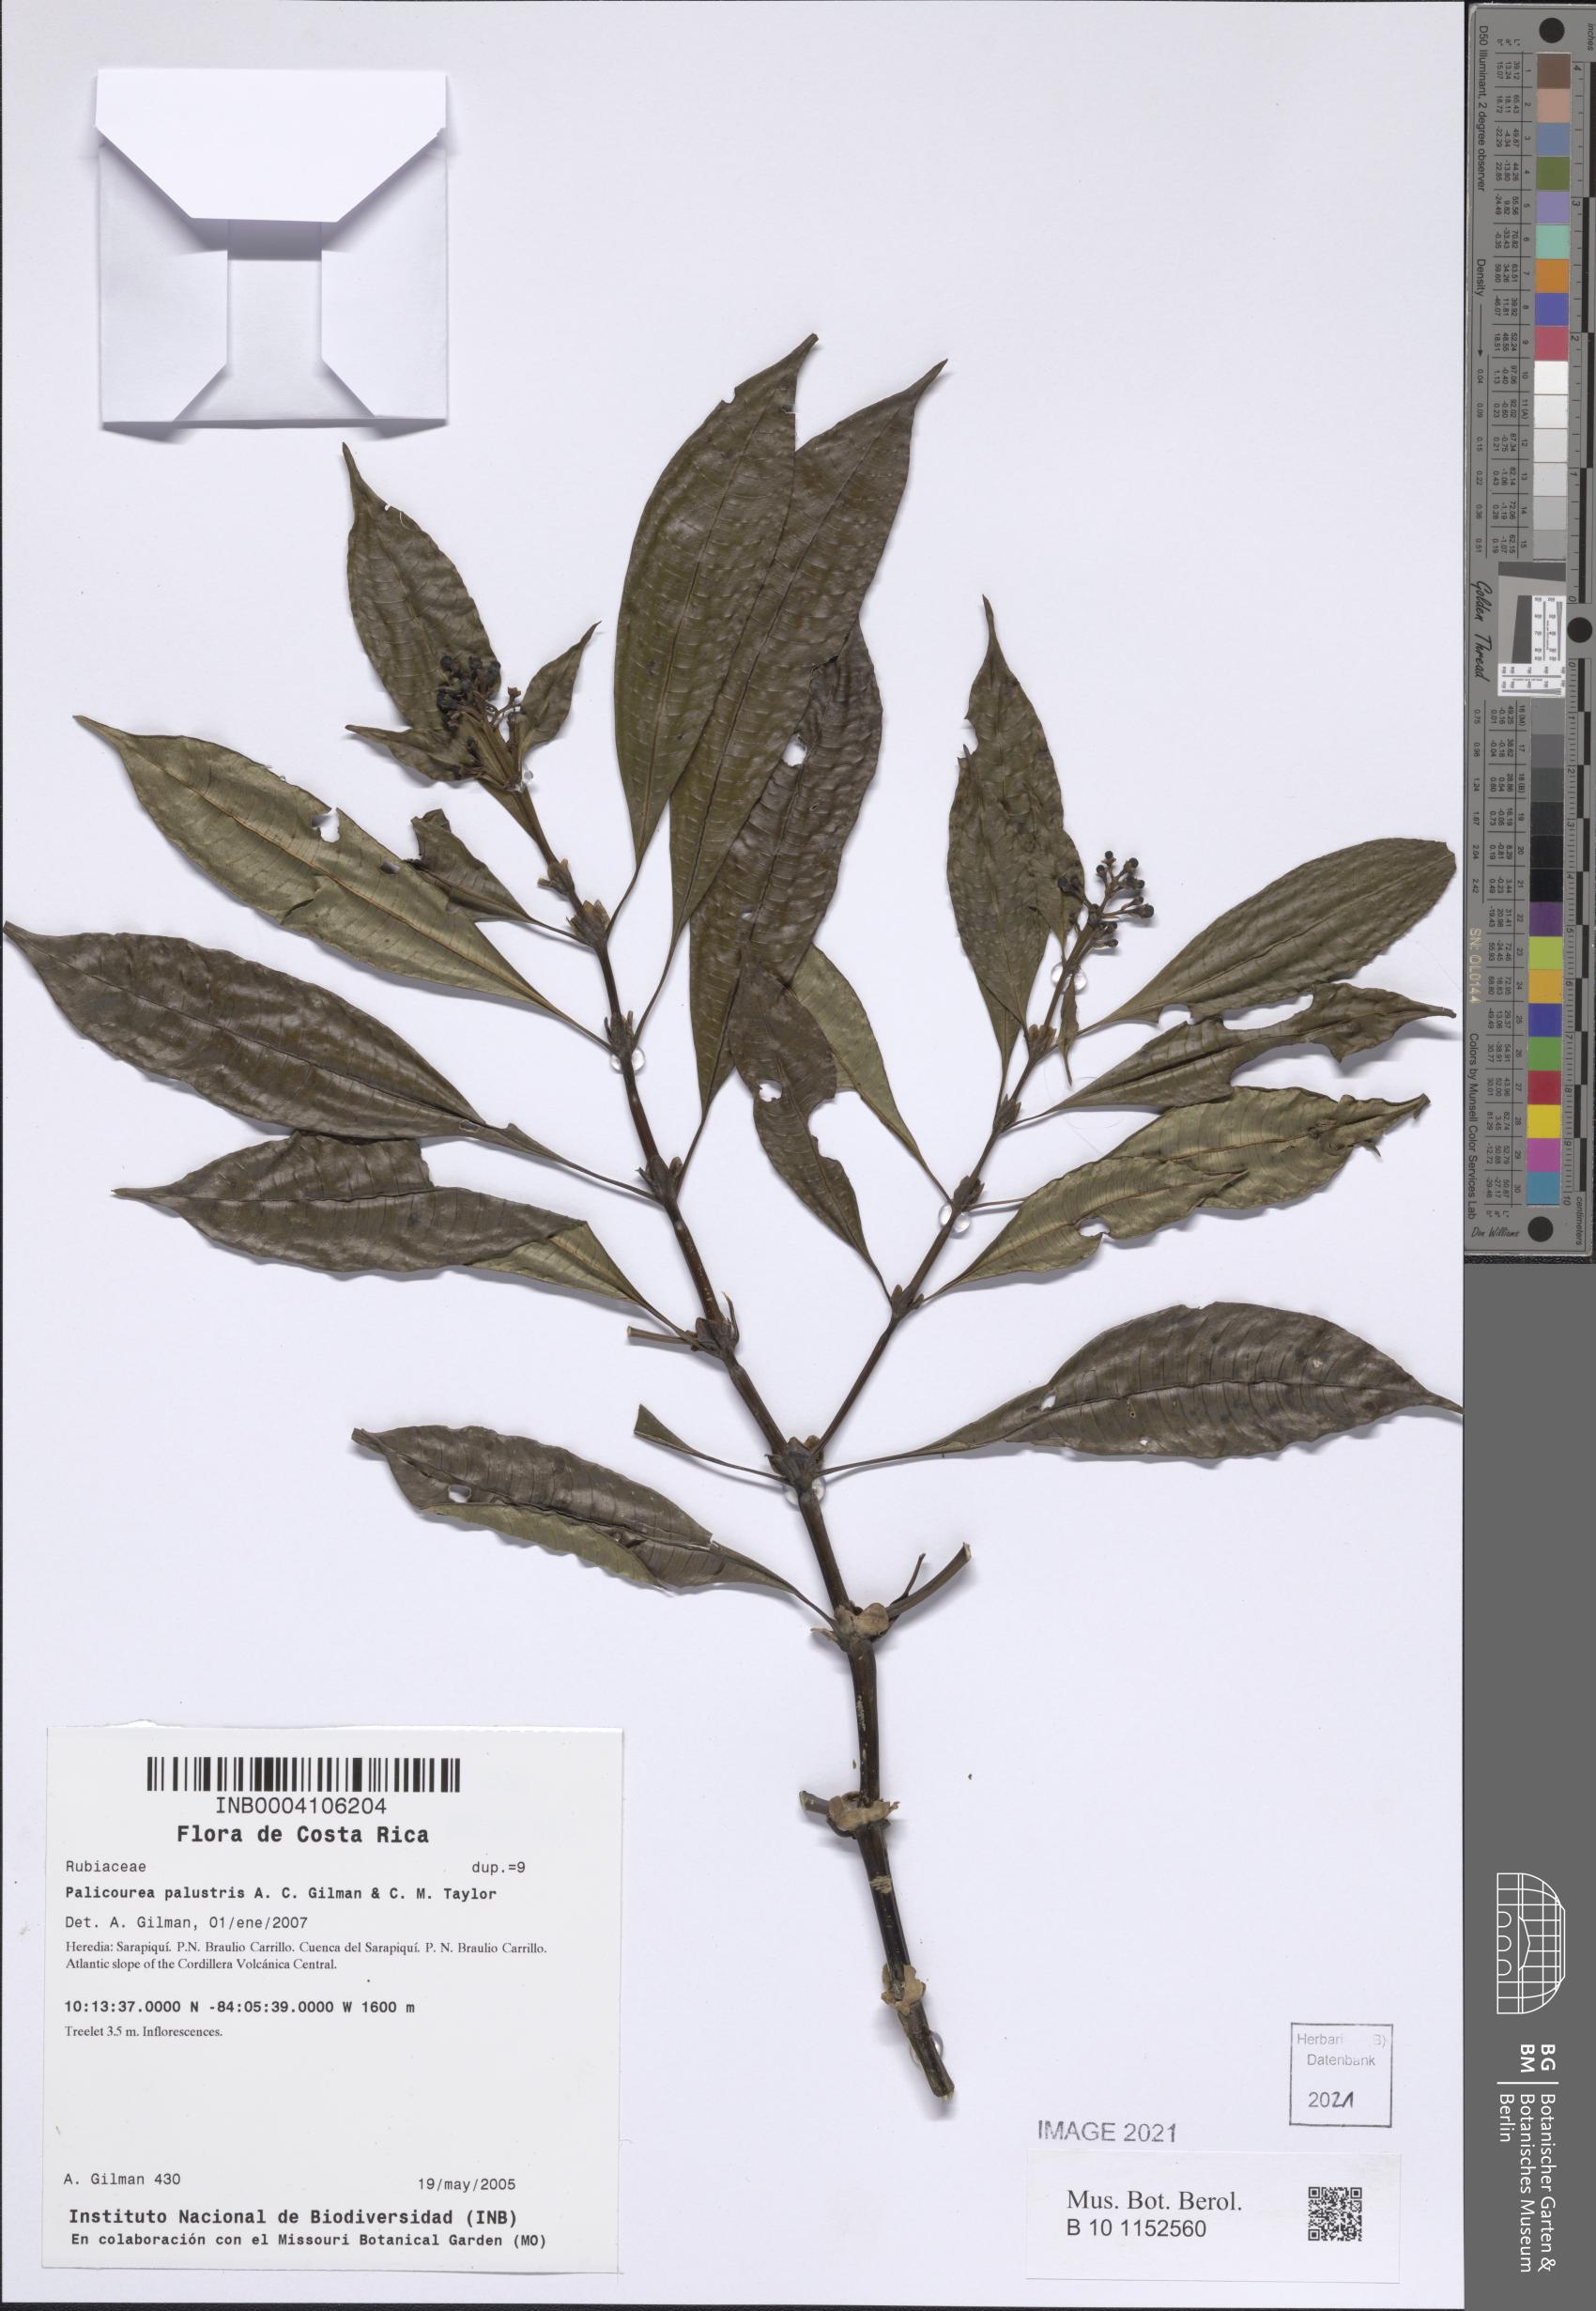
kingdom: Plantae
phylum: Tracheophyta
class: Magnoliopsida
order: Gentianales
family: Rubiaceae
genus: Palicourea
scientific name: Palicourea palustris
